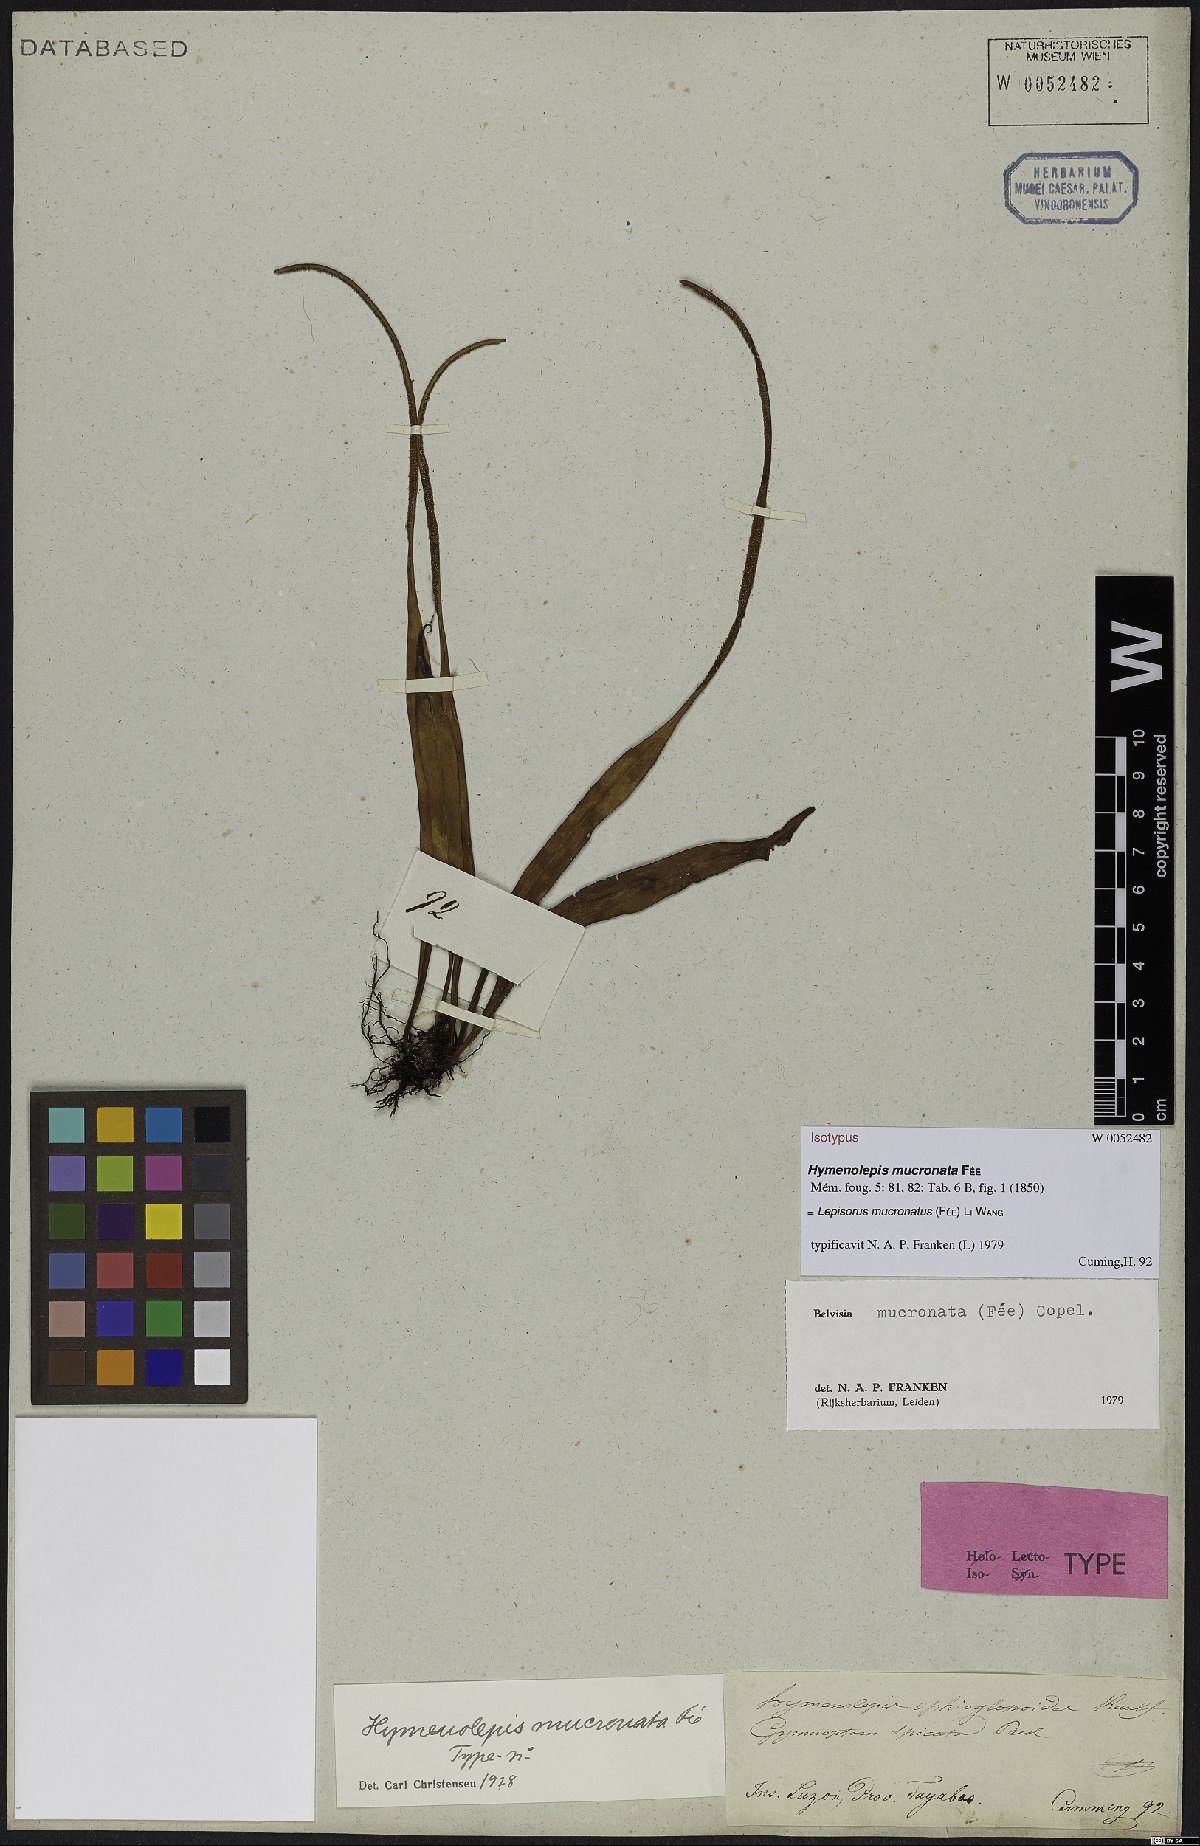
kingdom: Plantae
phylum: Tracheophyta
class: Polypodiopsida
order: Polypodiales
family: Polypodiaceae
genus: Lepisorus
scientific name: Lepisorus mucronatus
